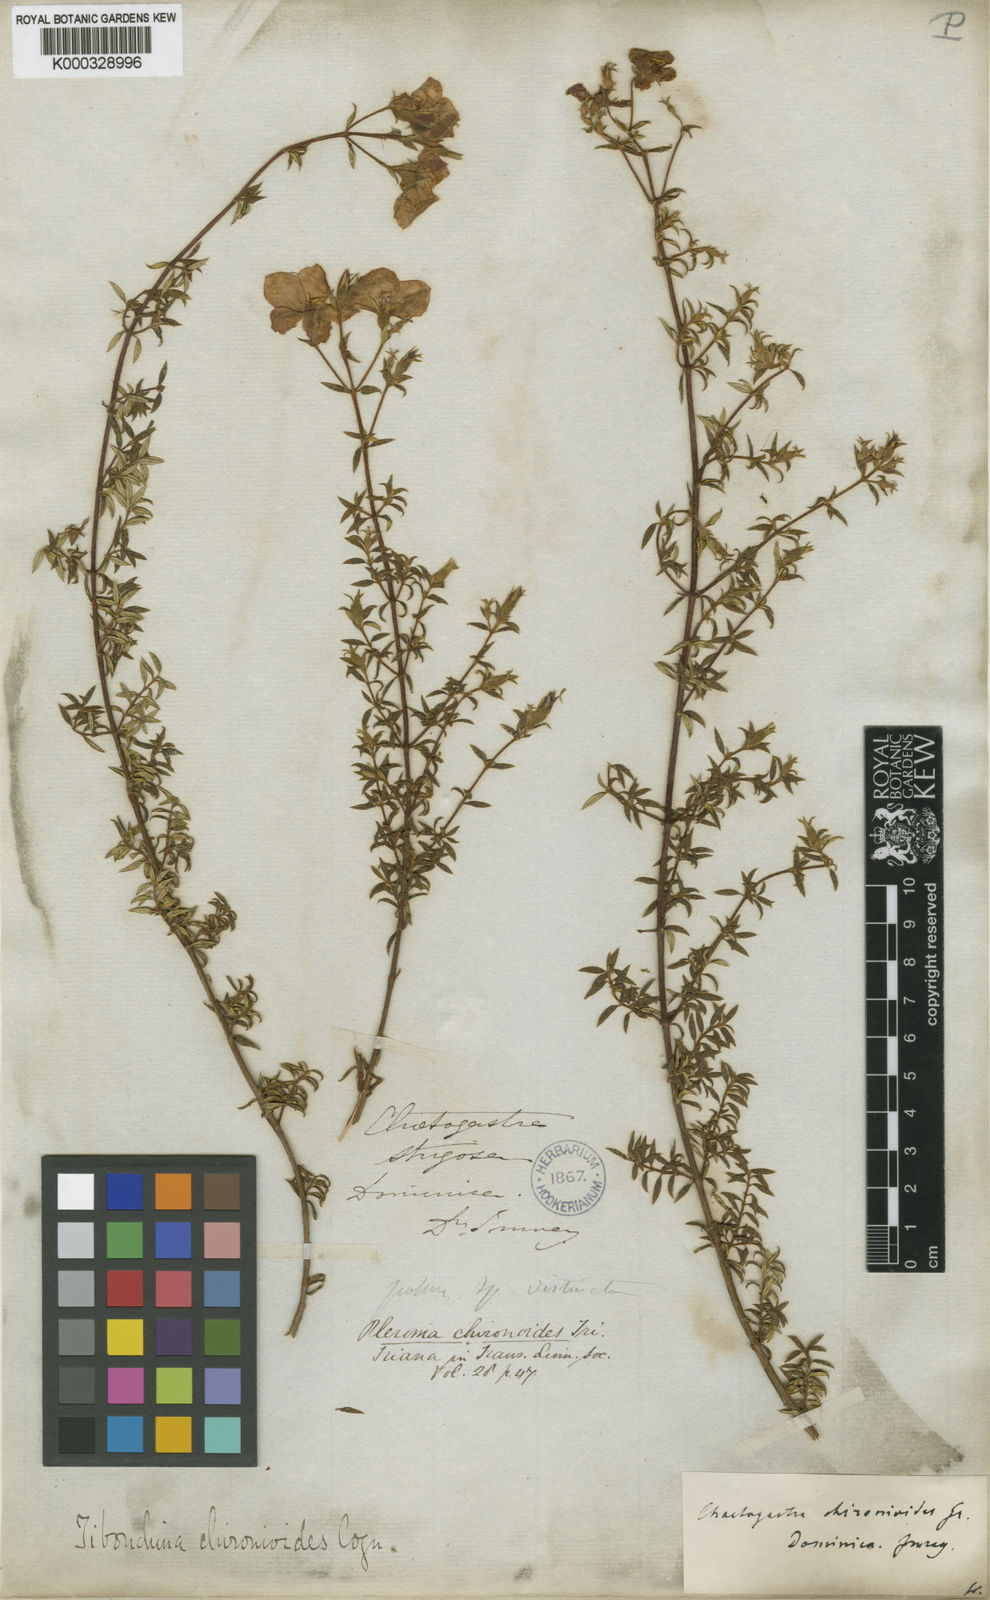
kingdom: Plantae
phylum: Tracheophyta
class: Magnoliopsida
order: Myrtales
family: Melastomataceae
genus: Chaetogastra
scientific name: Chaetogastra chironioides
